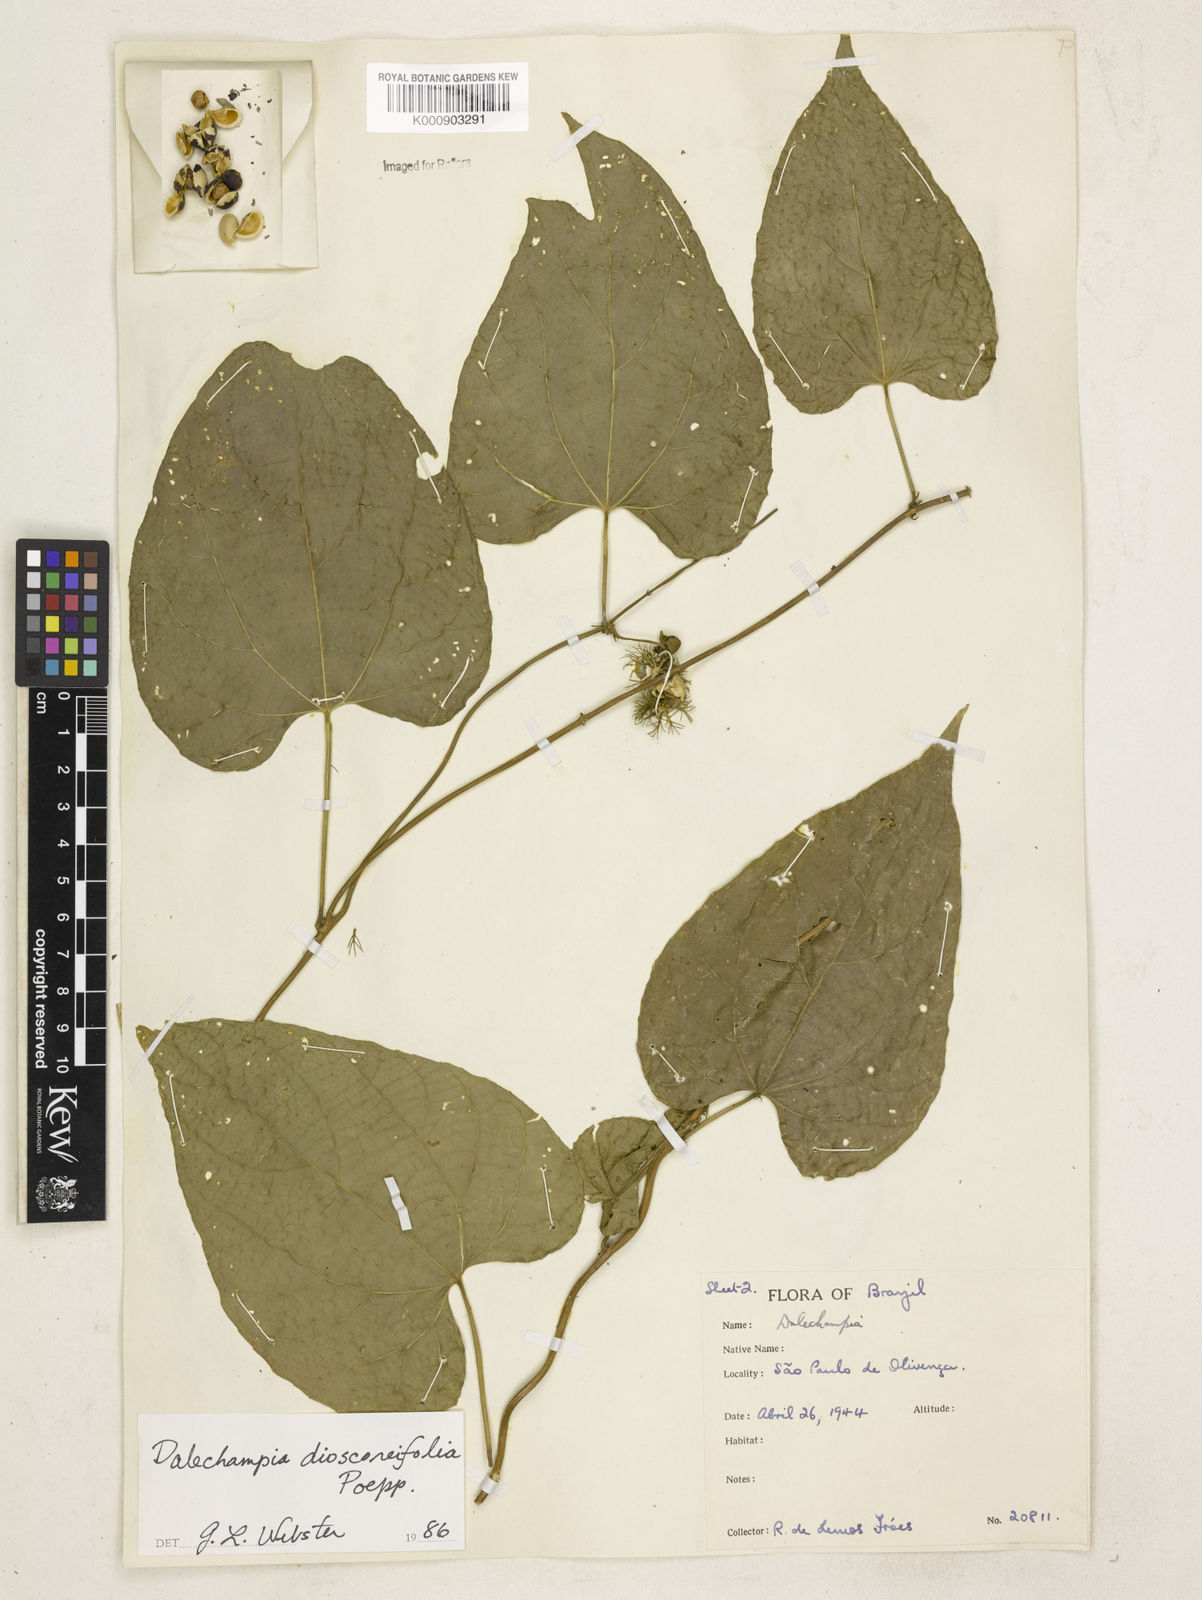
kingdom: Plantae
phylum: Tracheophyta
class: Magnoliopsida
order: Malpighiales
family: Euphorbiaceae
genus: Dalechampia
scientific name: Dalechampia dioscoreifolia
